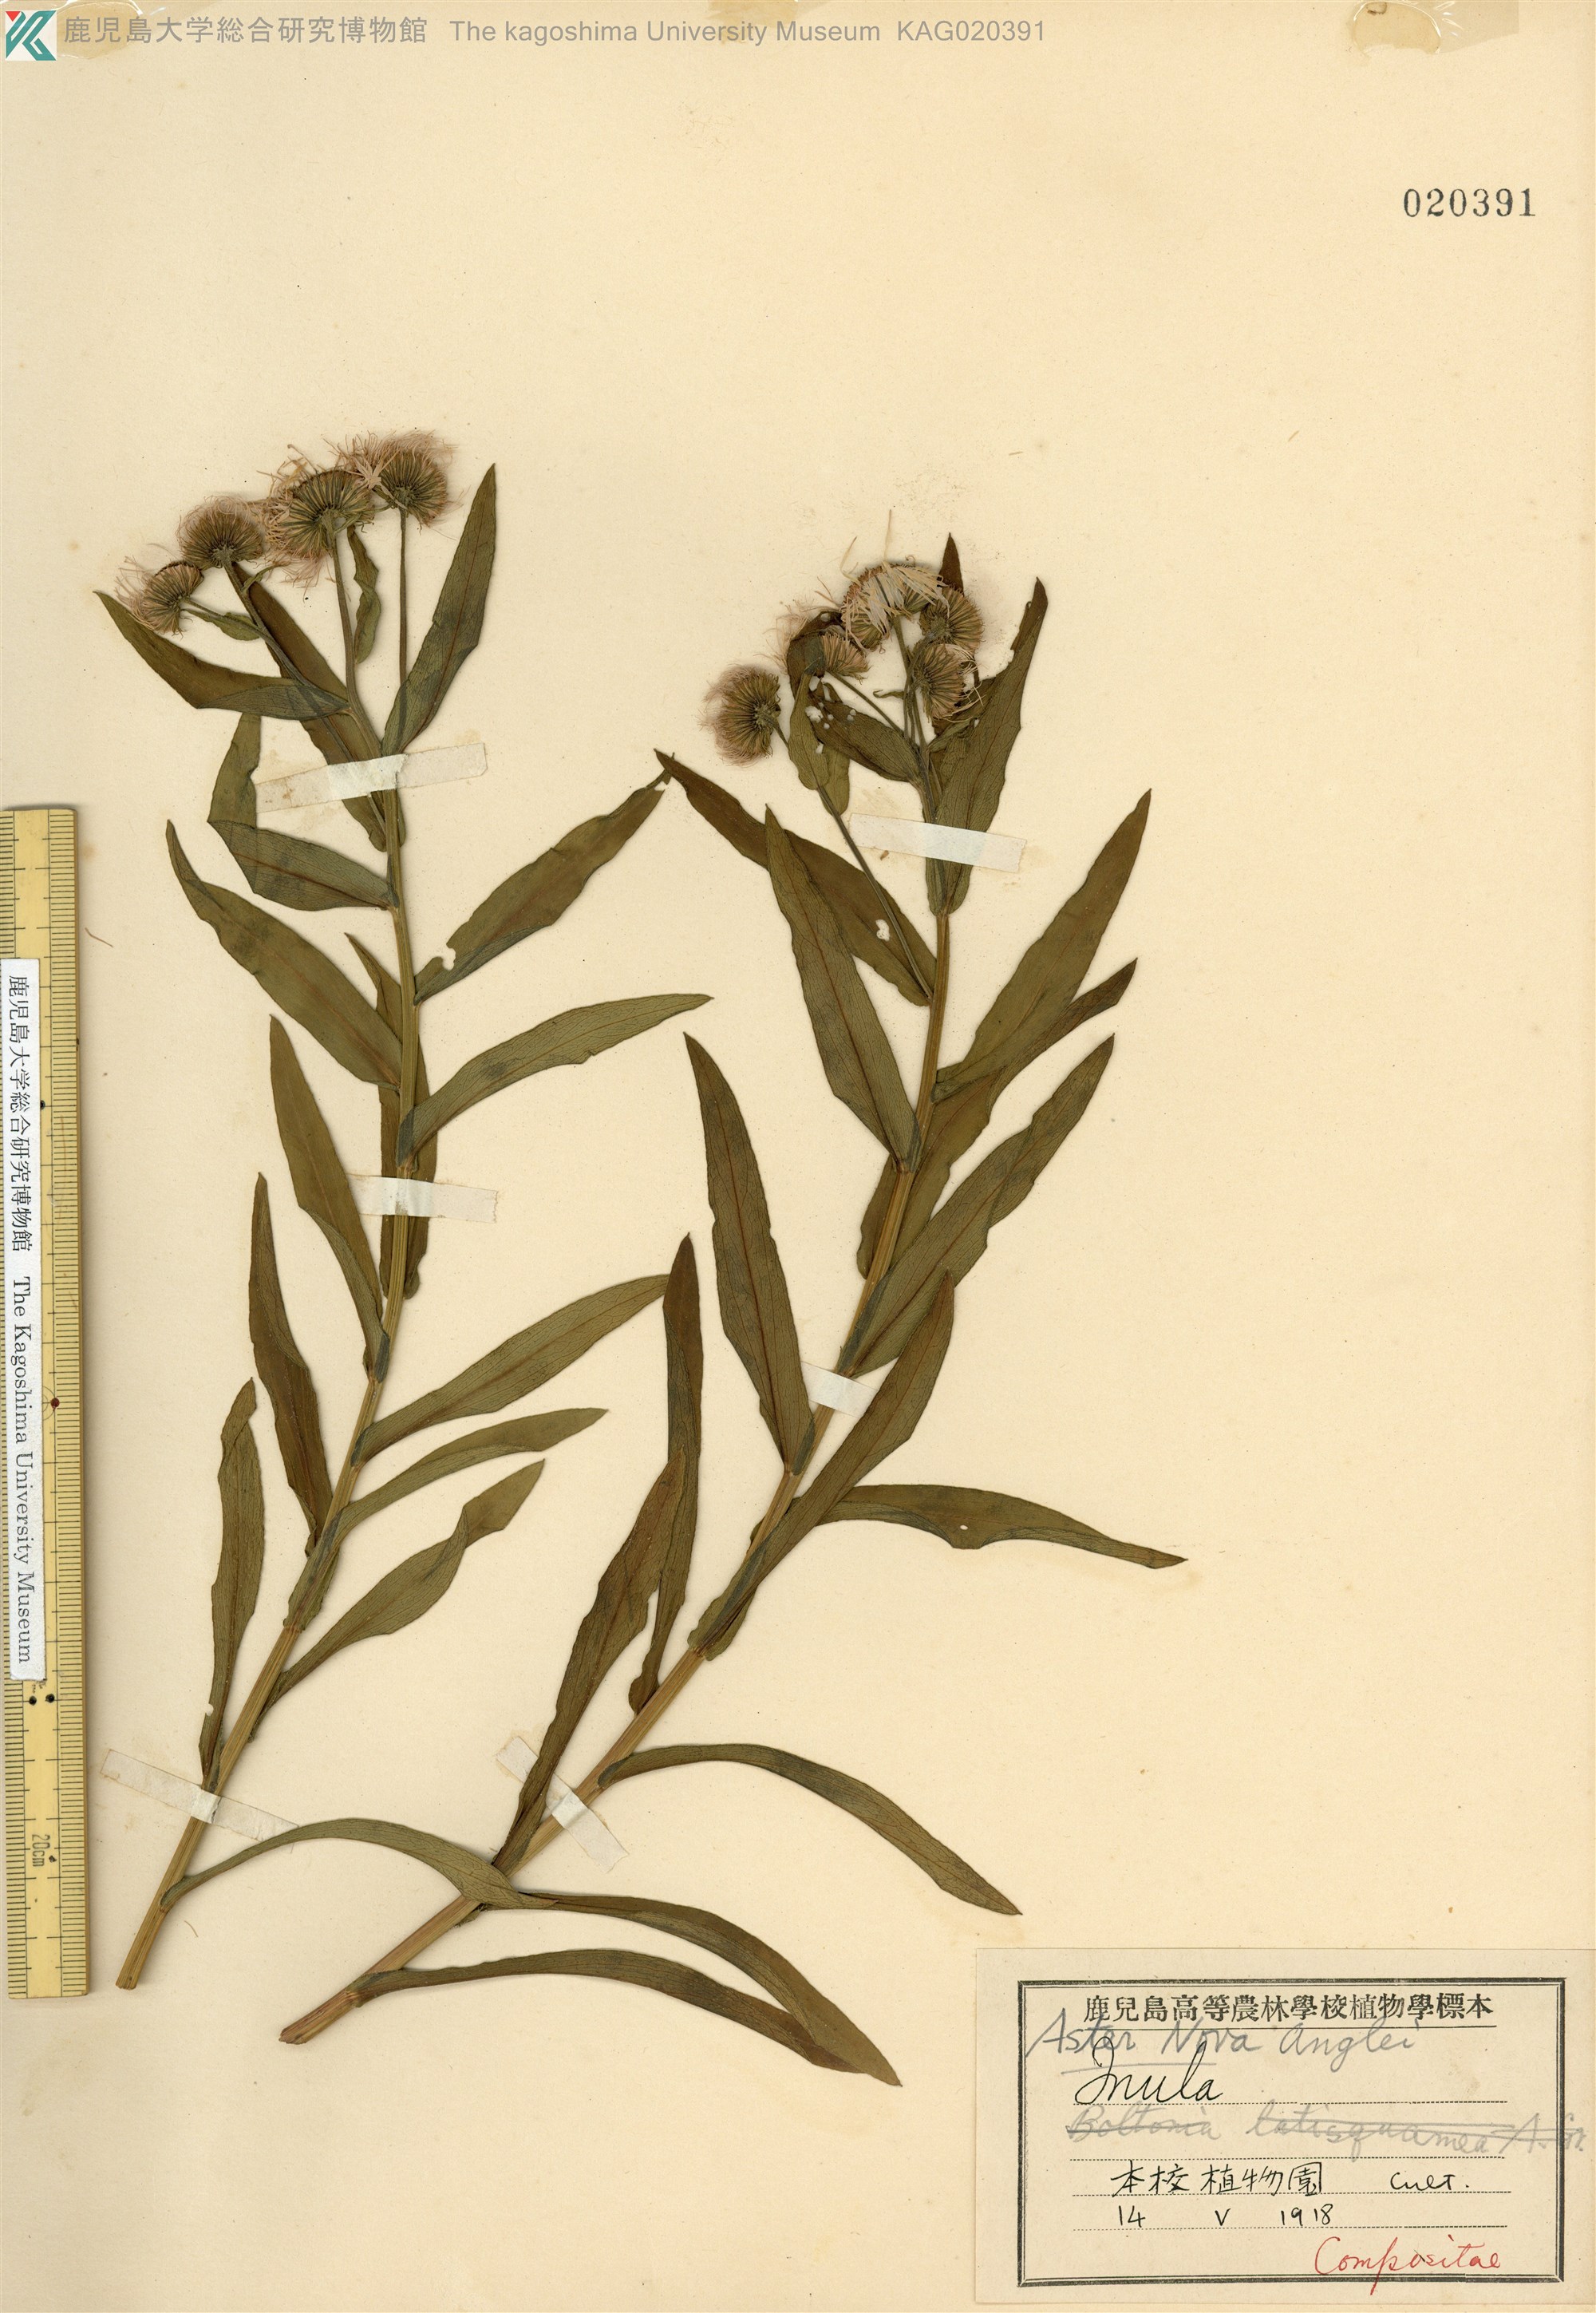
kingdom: Plantae
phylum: Tracheophyta
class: Magnoliopsida
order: Asterales
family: Asteraceae
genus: Symphyotrichum
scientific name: Symphyotrichum novae-angliae
